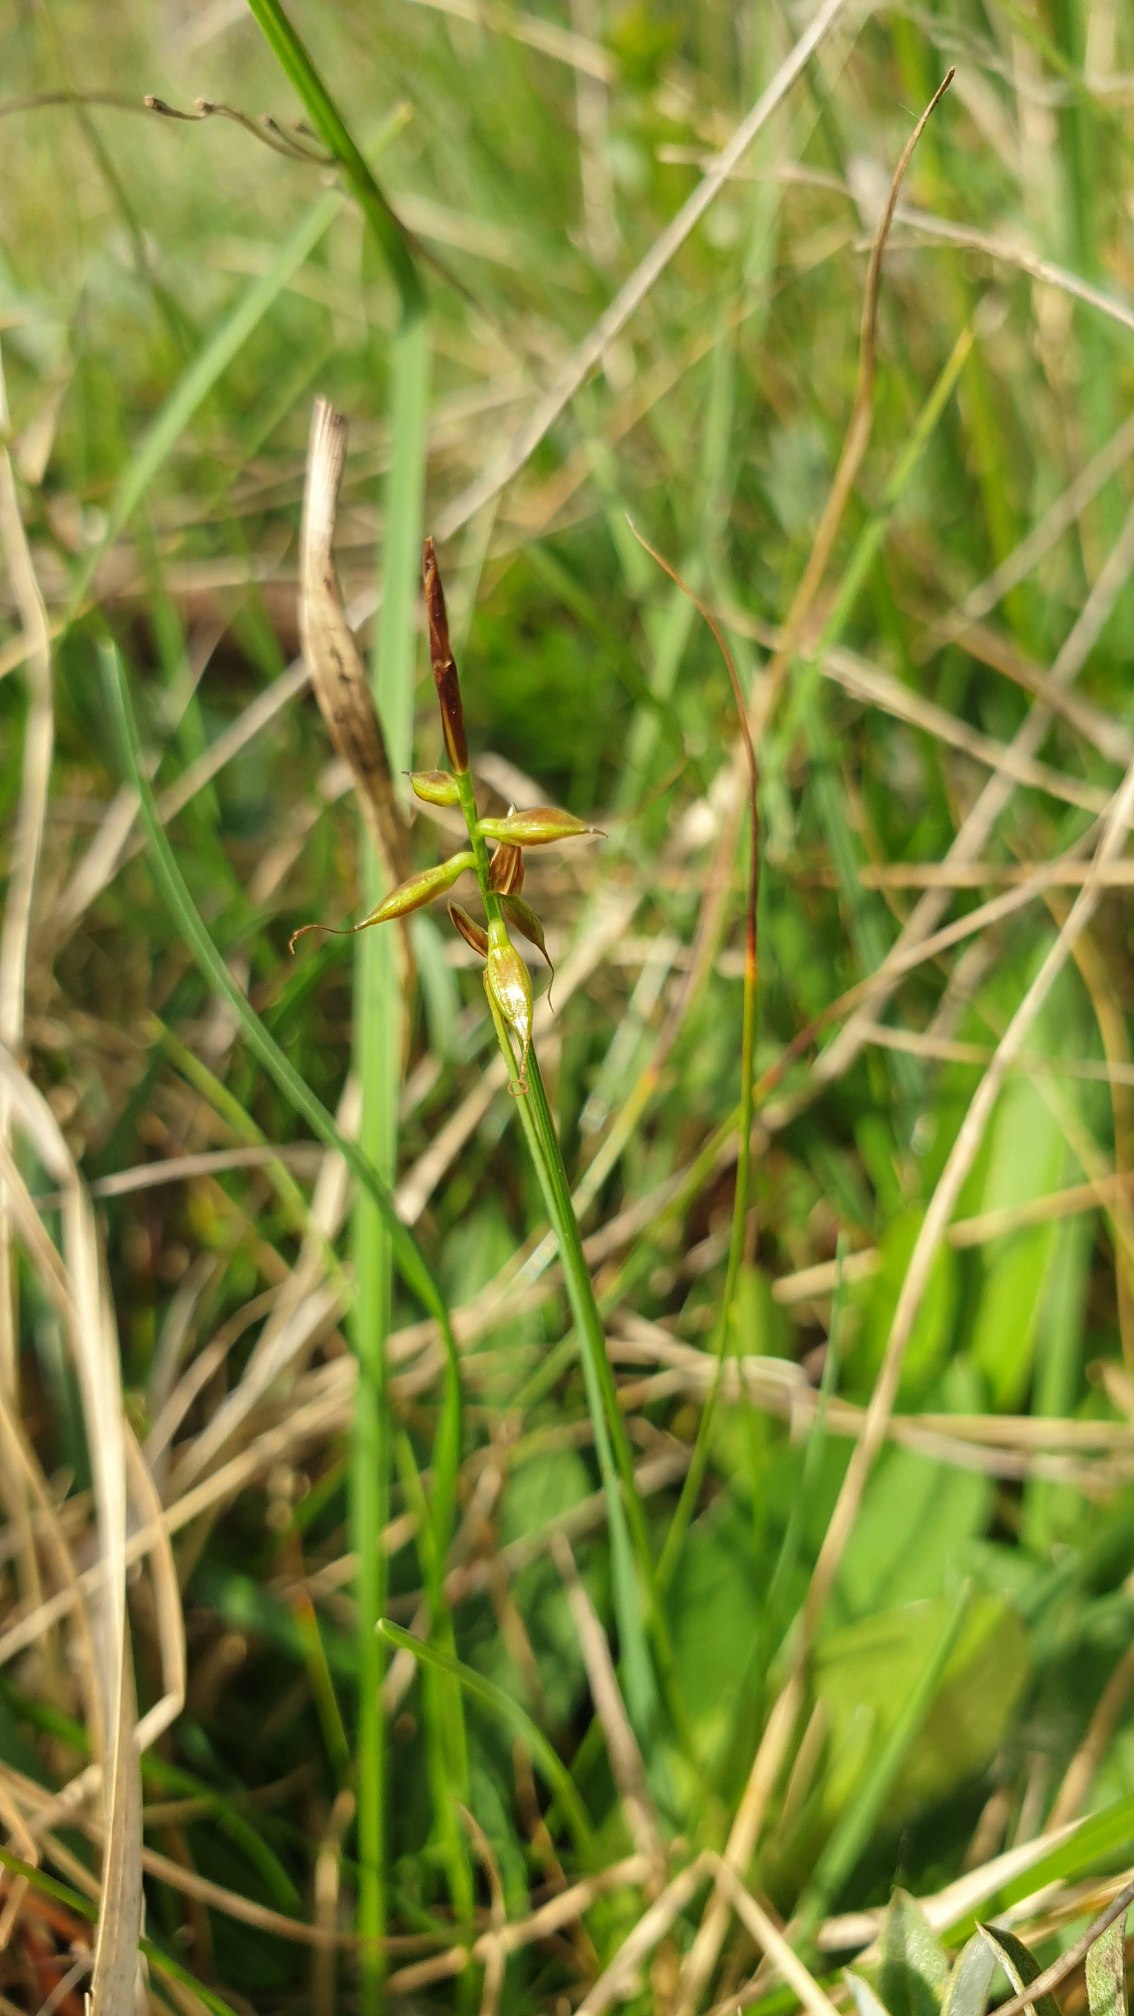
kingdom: Plantae
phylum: Tracheophyta
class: Liliopsida
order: Poales
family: Cyperaceae
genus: Carex
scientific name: Carex pulicaris
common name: Loppe-star
